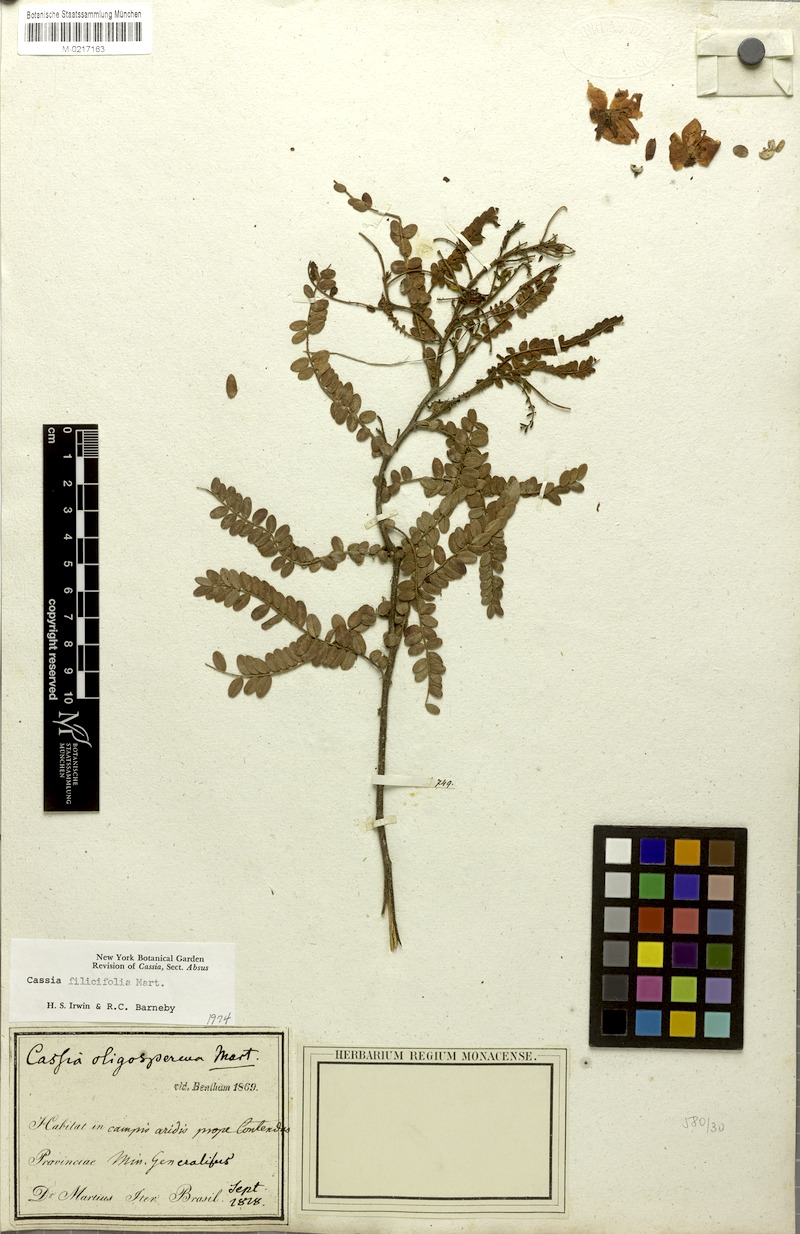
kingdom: Plantae
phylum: Tracheophyta
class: Magnoliopsida
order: Fabales
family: Fabaceae
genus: Chamaecrista
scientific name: Chamaecrista filicifolia
